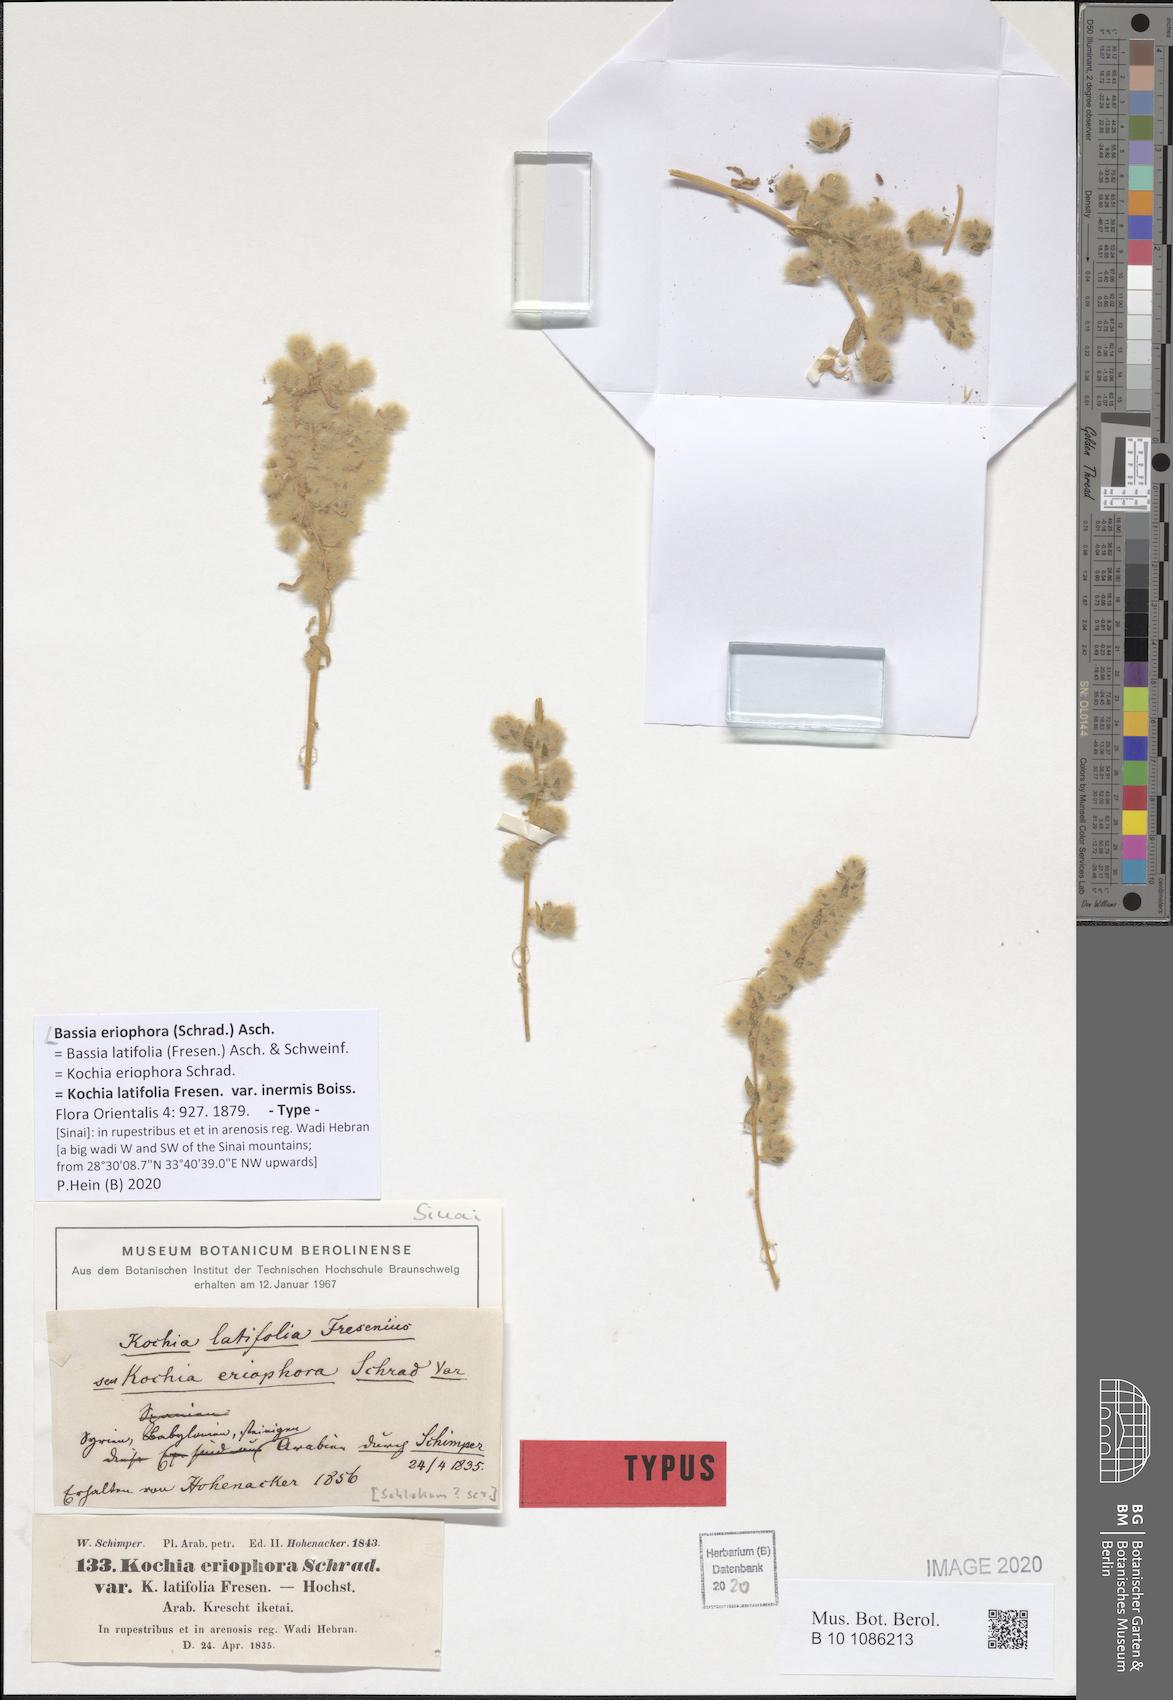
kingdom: Plantae
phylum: Tracheophyta
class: Magnoliopsida
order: Caryophyllales
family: Amaranthaceae
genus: Bassia
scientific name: Bassia eriophora
